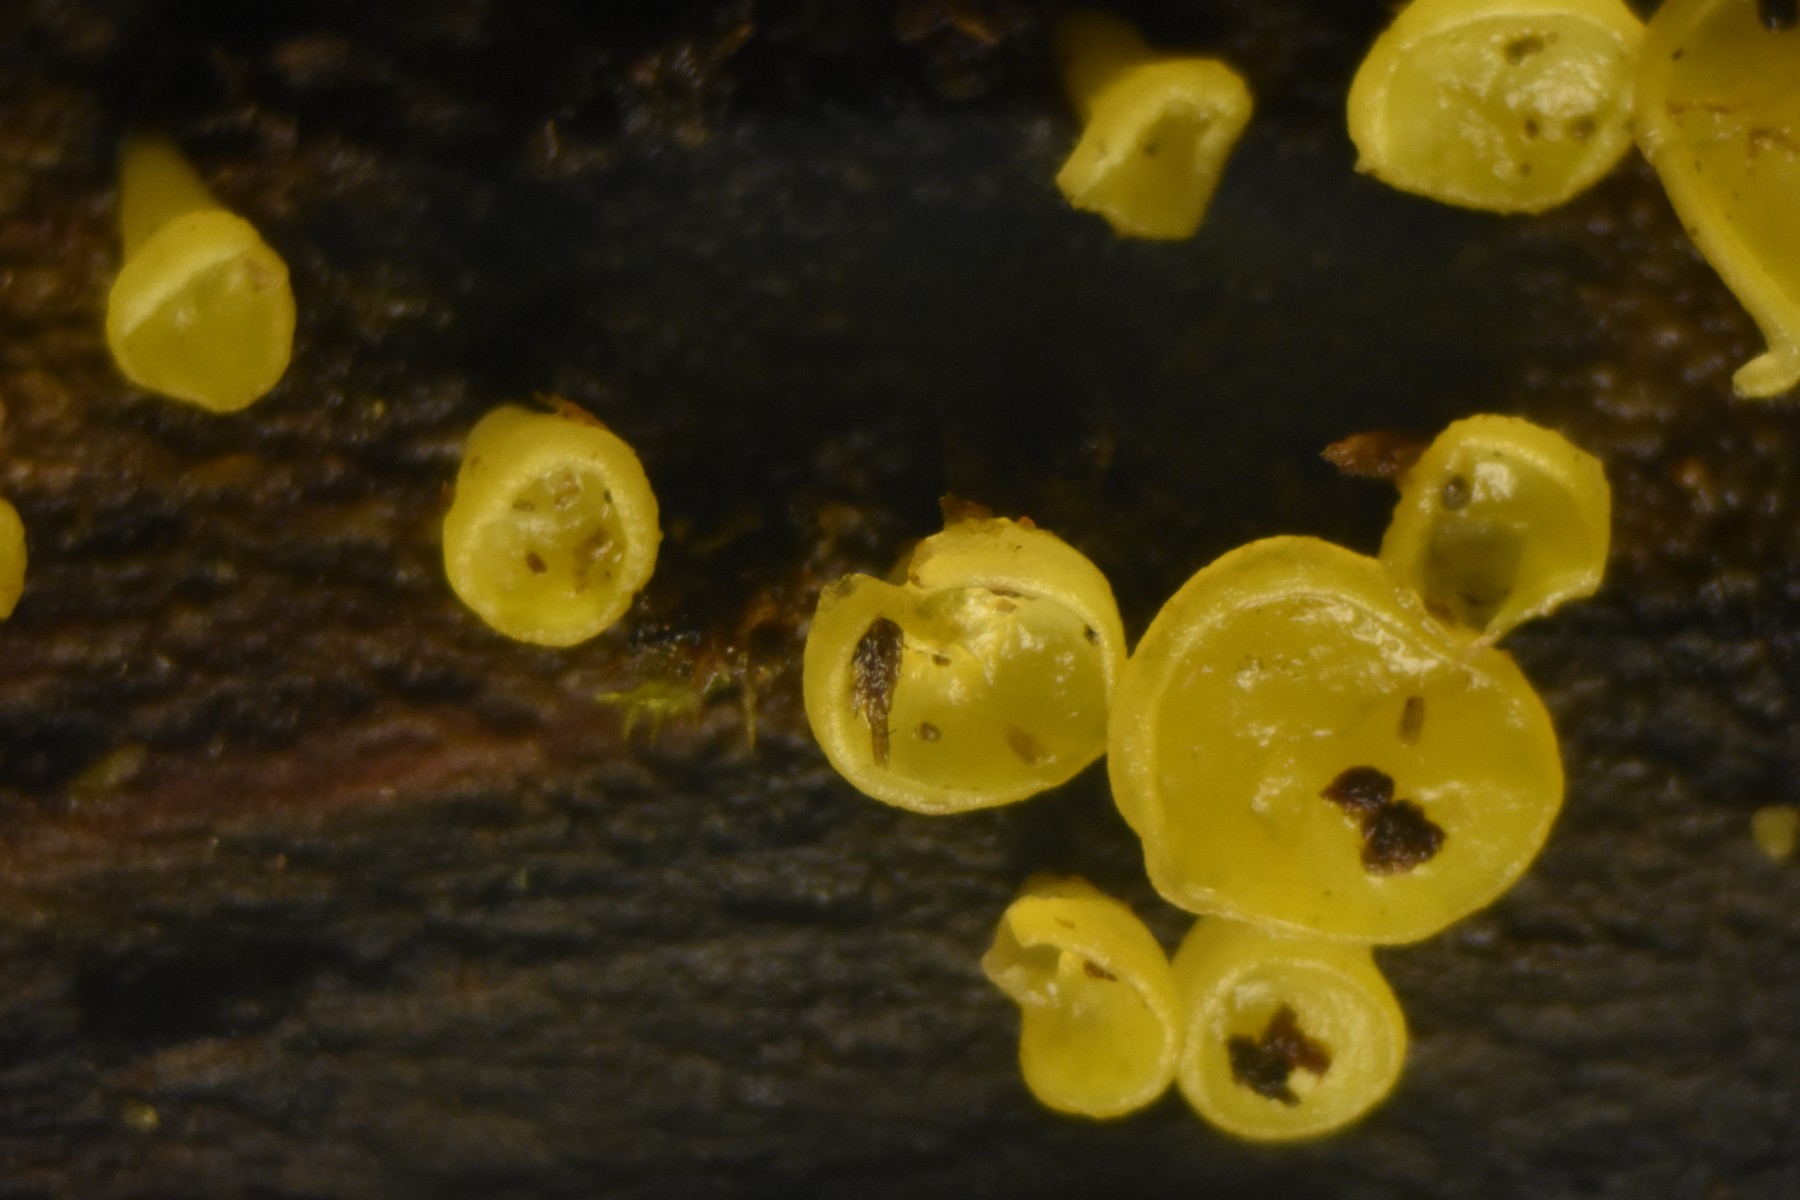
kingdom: Fungi
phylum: Ascomycota
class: Leotiomycetes
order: Helotiales
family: Pezizellaceae
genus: Calycina
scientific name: Calycina citrina
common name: almindelig gulskive
